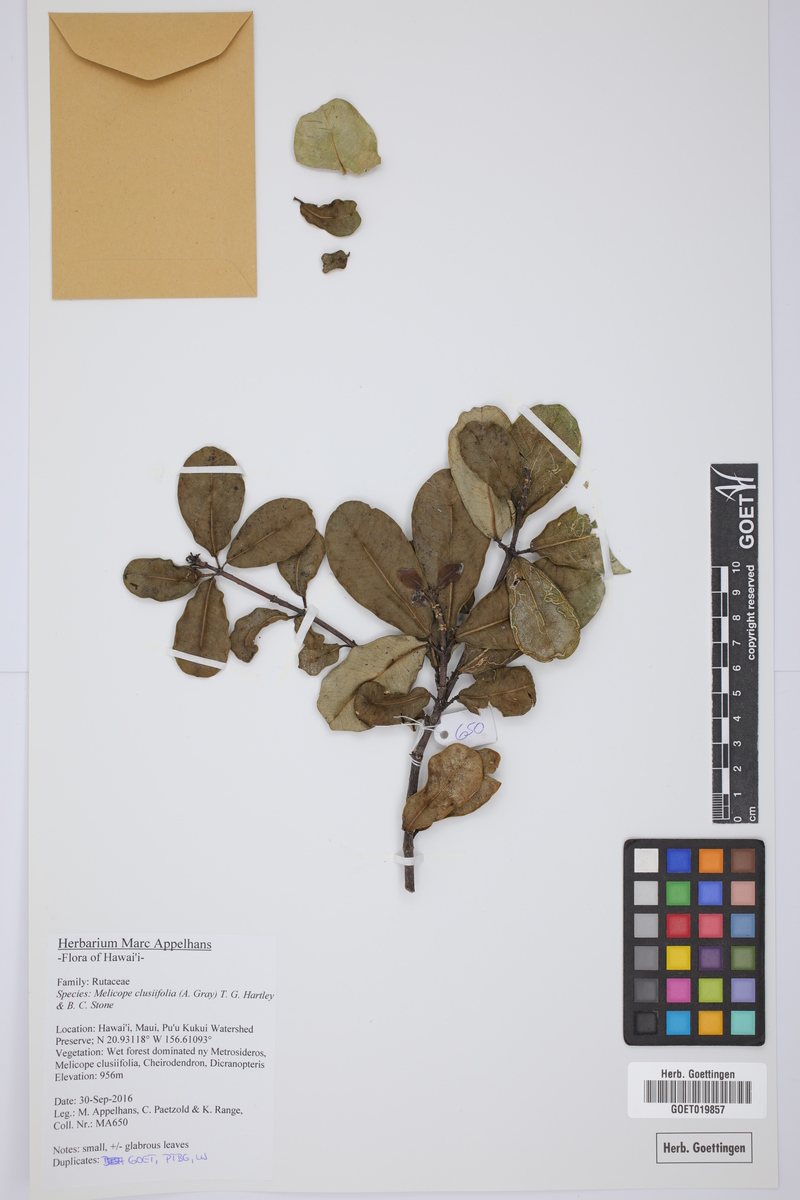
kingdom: Plantae
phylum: Tracheophyta
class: Magnoliopsida
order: Sapindales
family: Rutaceae
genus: Melicope
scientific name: Melicope clusiifolia
